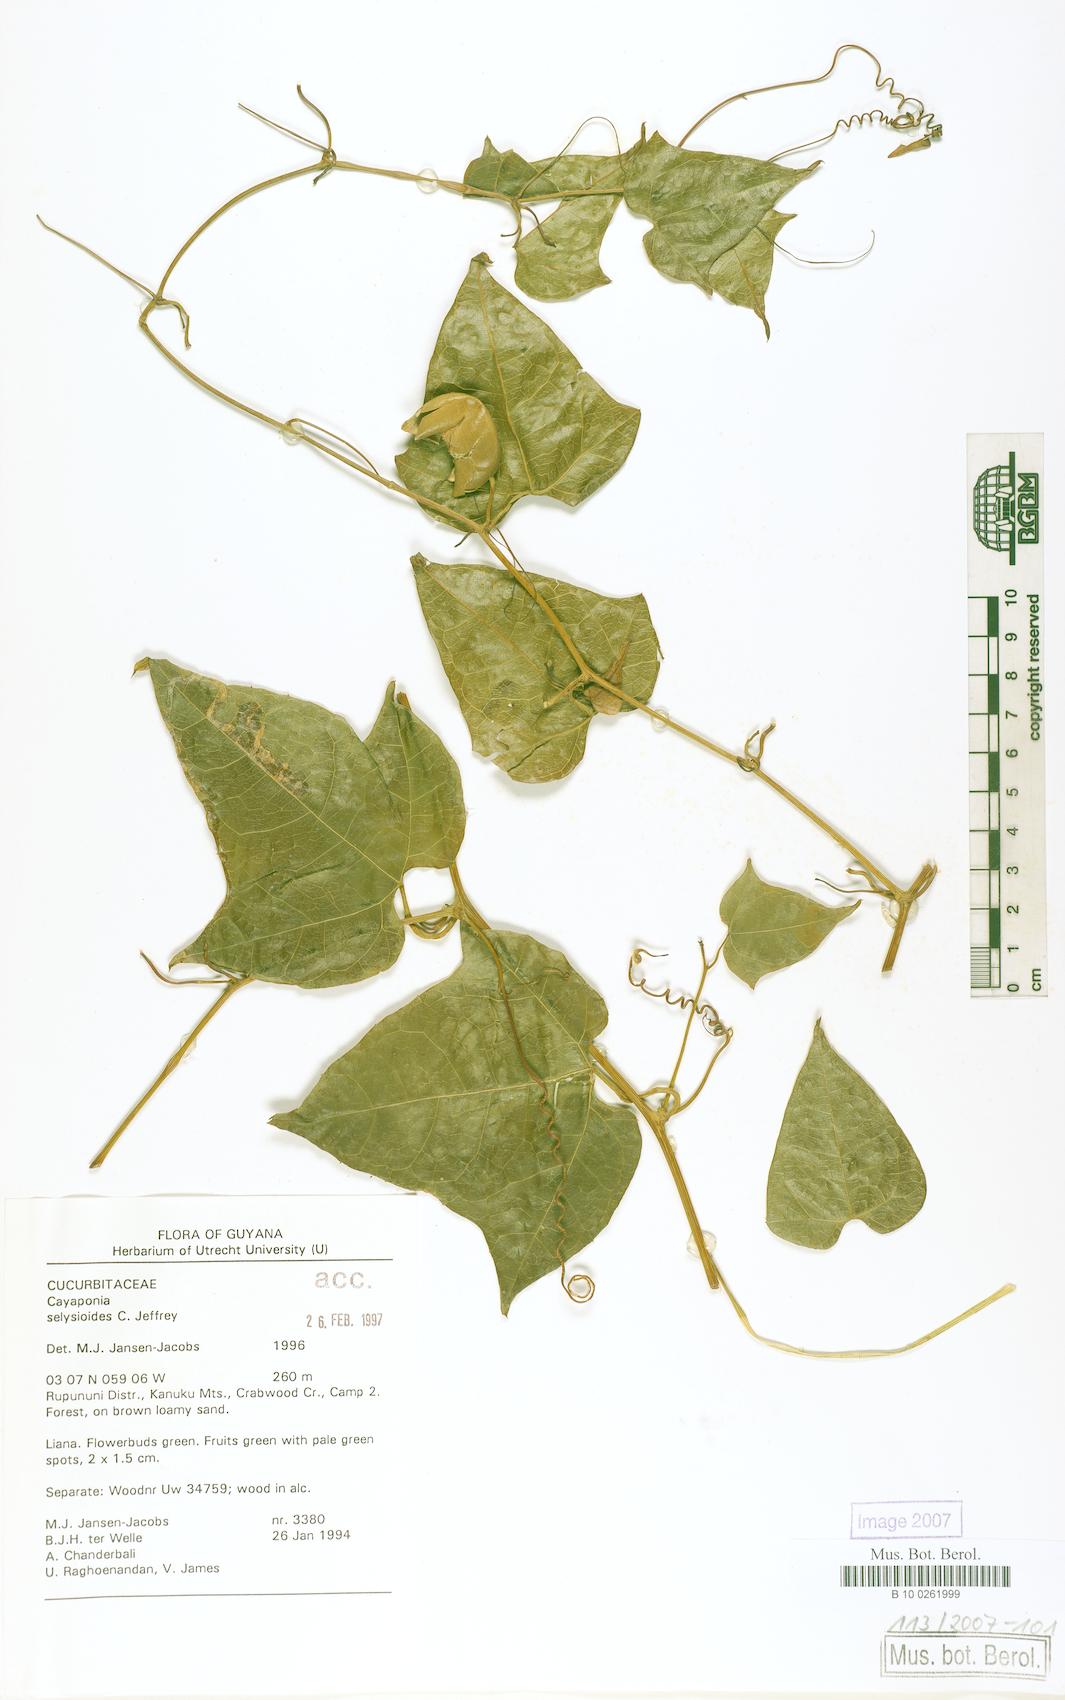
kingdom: Plantae
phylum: Tracheophyta
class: Magnoliopsida
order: Cucurbitales
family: Cucurbitaceae
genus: Cayaponia
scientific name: Cayaponia selysioides
